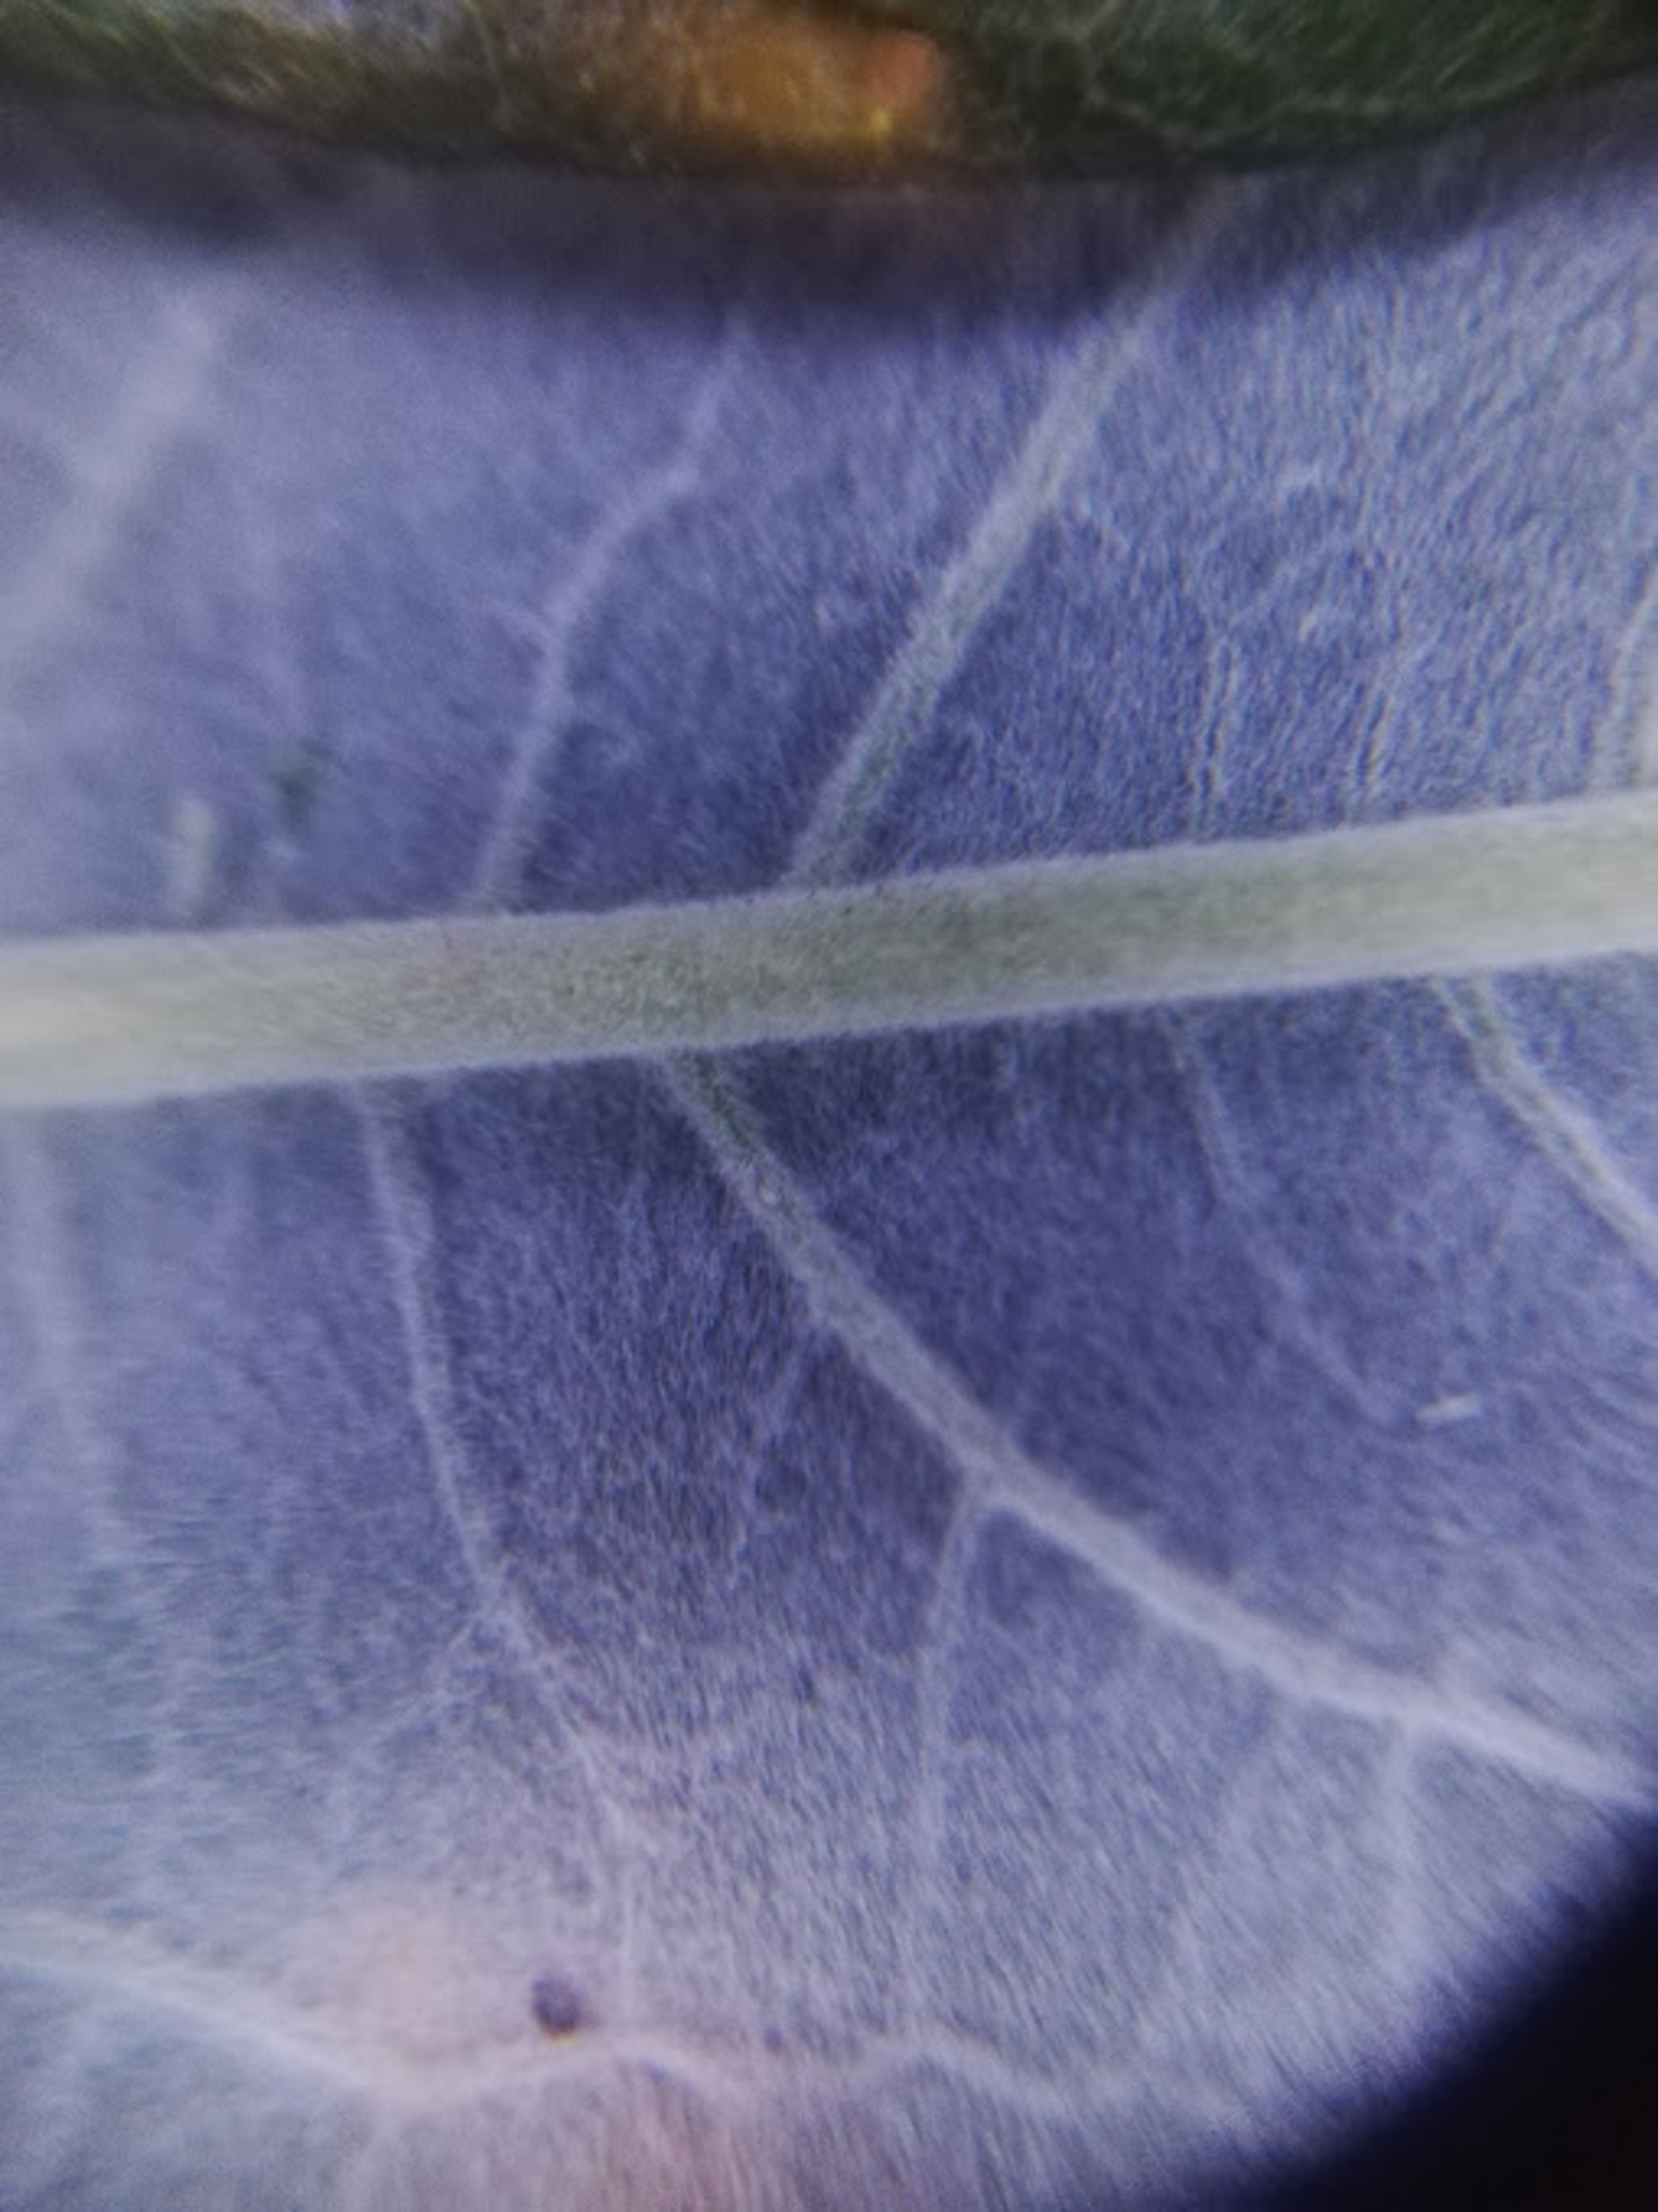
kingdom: Plantae
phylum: Tracheophyta
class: Magnoliopsida
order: Malpighiales
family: Salicaceae
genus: Salix
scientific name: Salix viminalis
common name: Bånd-pil
